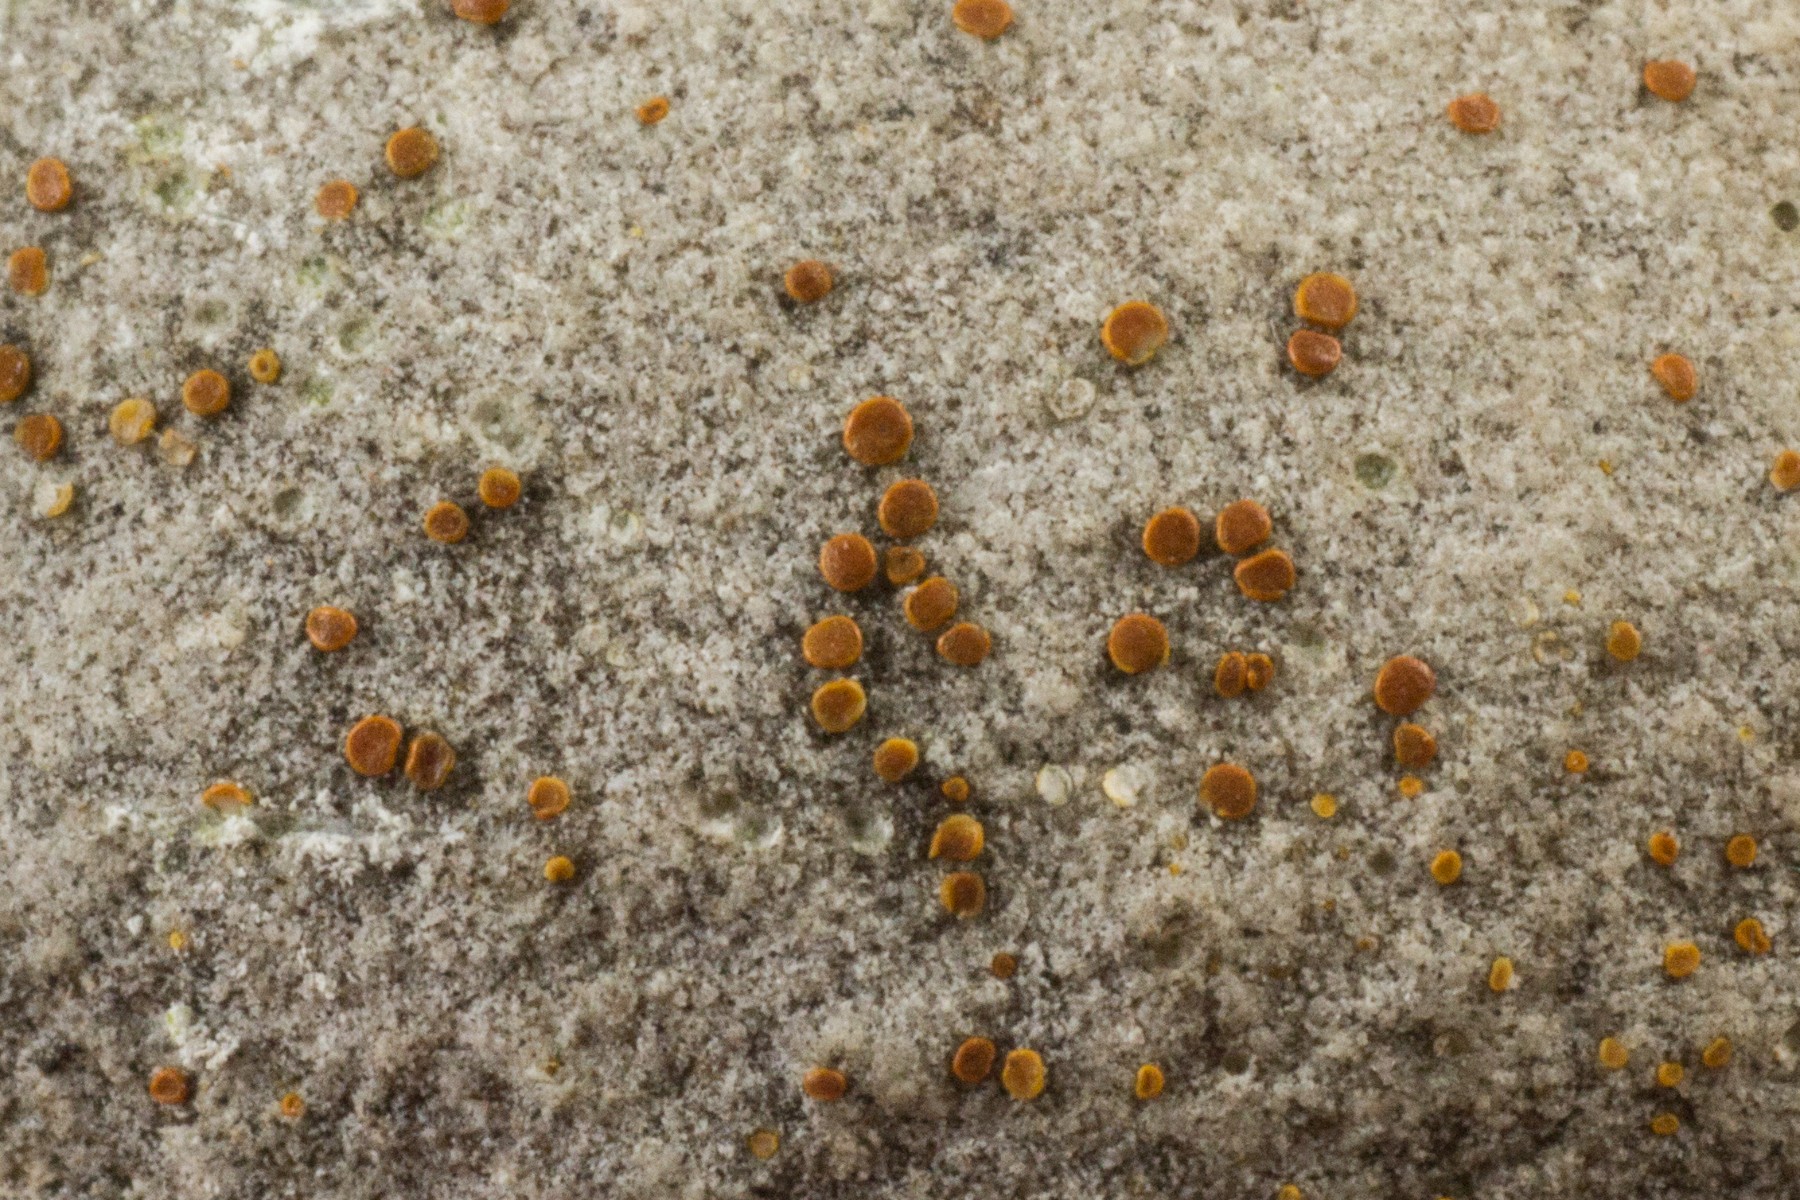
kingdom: Fungi
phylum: Ascomycota
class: Lecanoromycetes
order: Teloschistales
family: Teloschistaceae
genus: Xanthocarpia
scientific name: Xanthocarpia lactea
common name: storsporet orangelav
